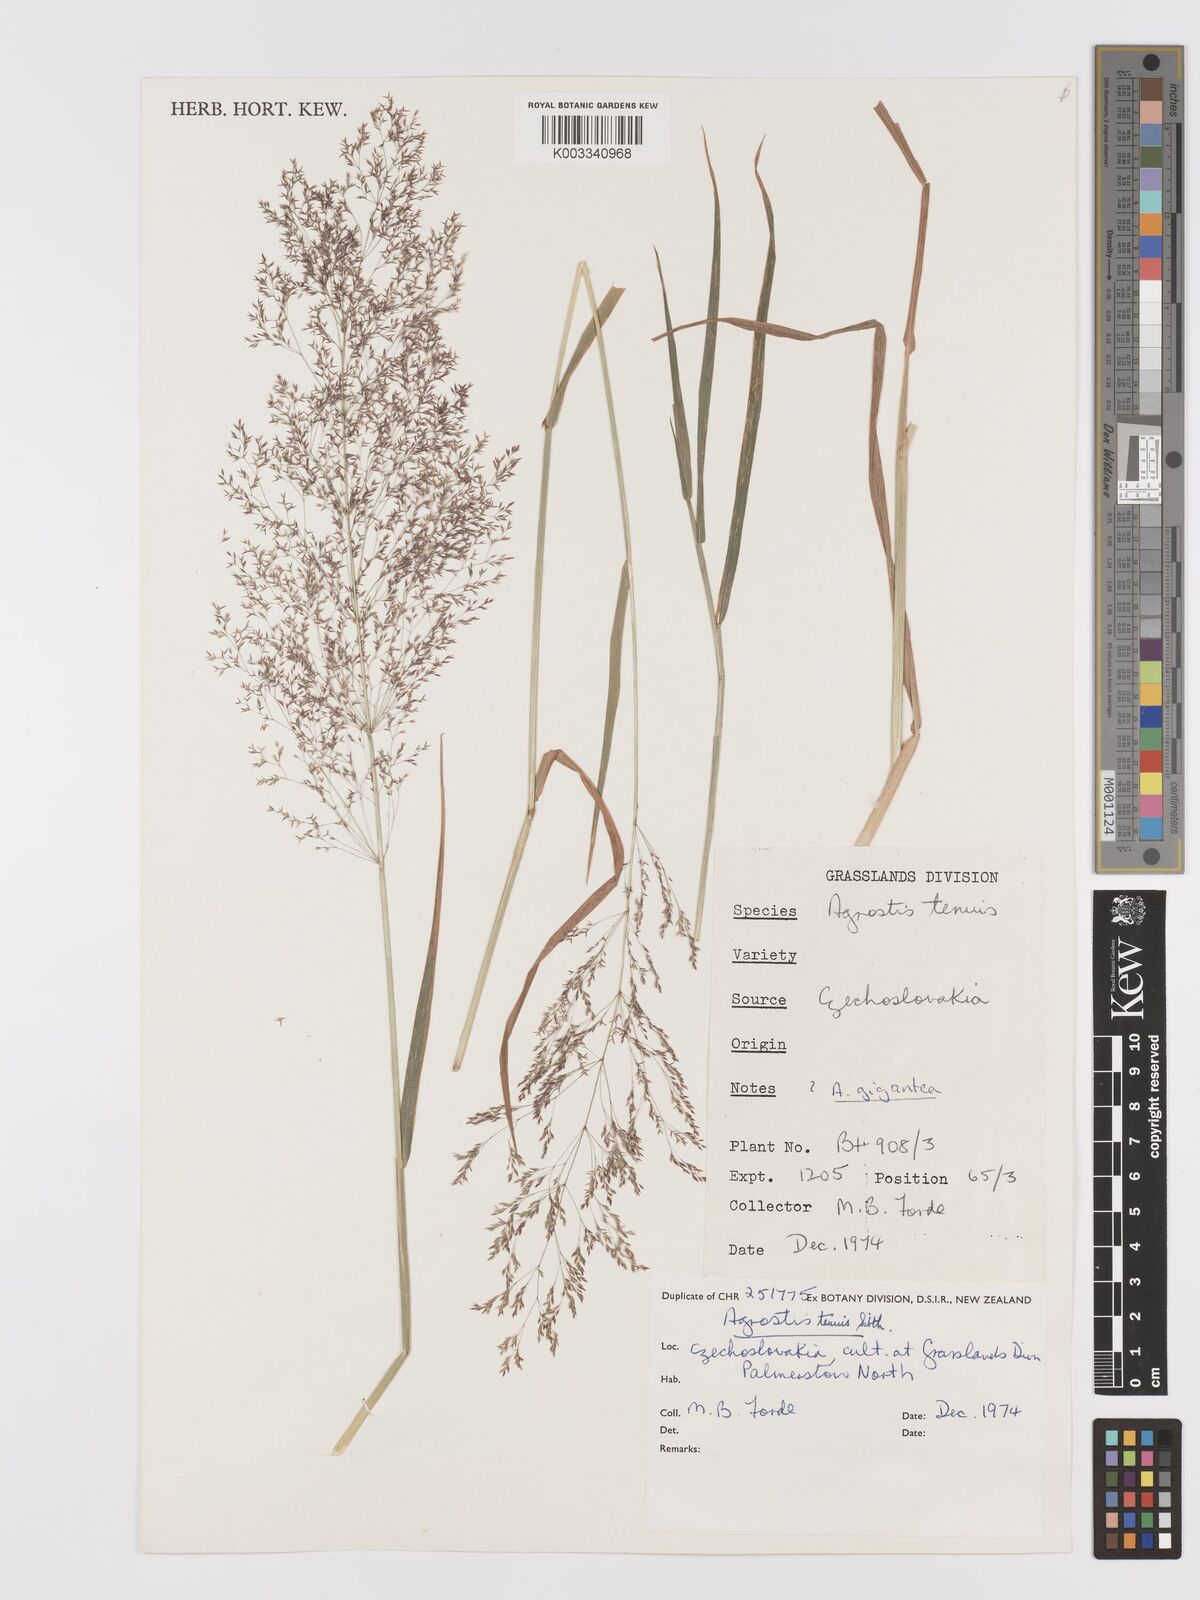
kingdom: Plantae
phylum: Tracheophyta
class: Liliopsida
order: Poales
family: Poaceae
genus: Agrostis
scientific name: Agrostis capillaris
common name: Colonial bentgrass
